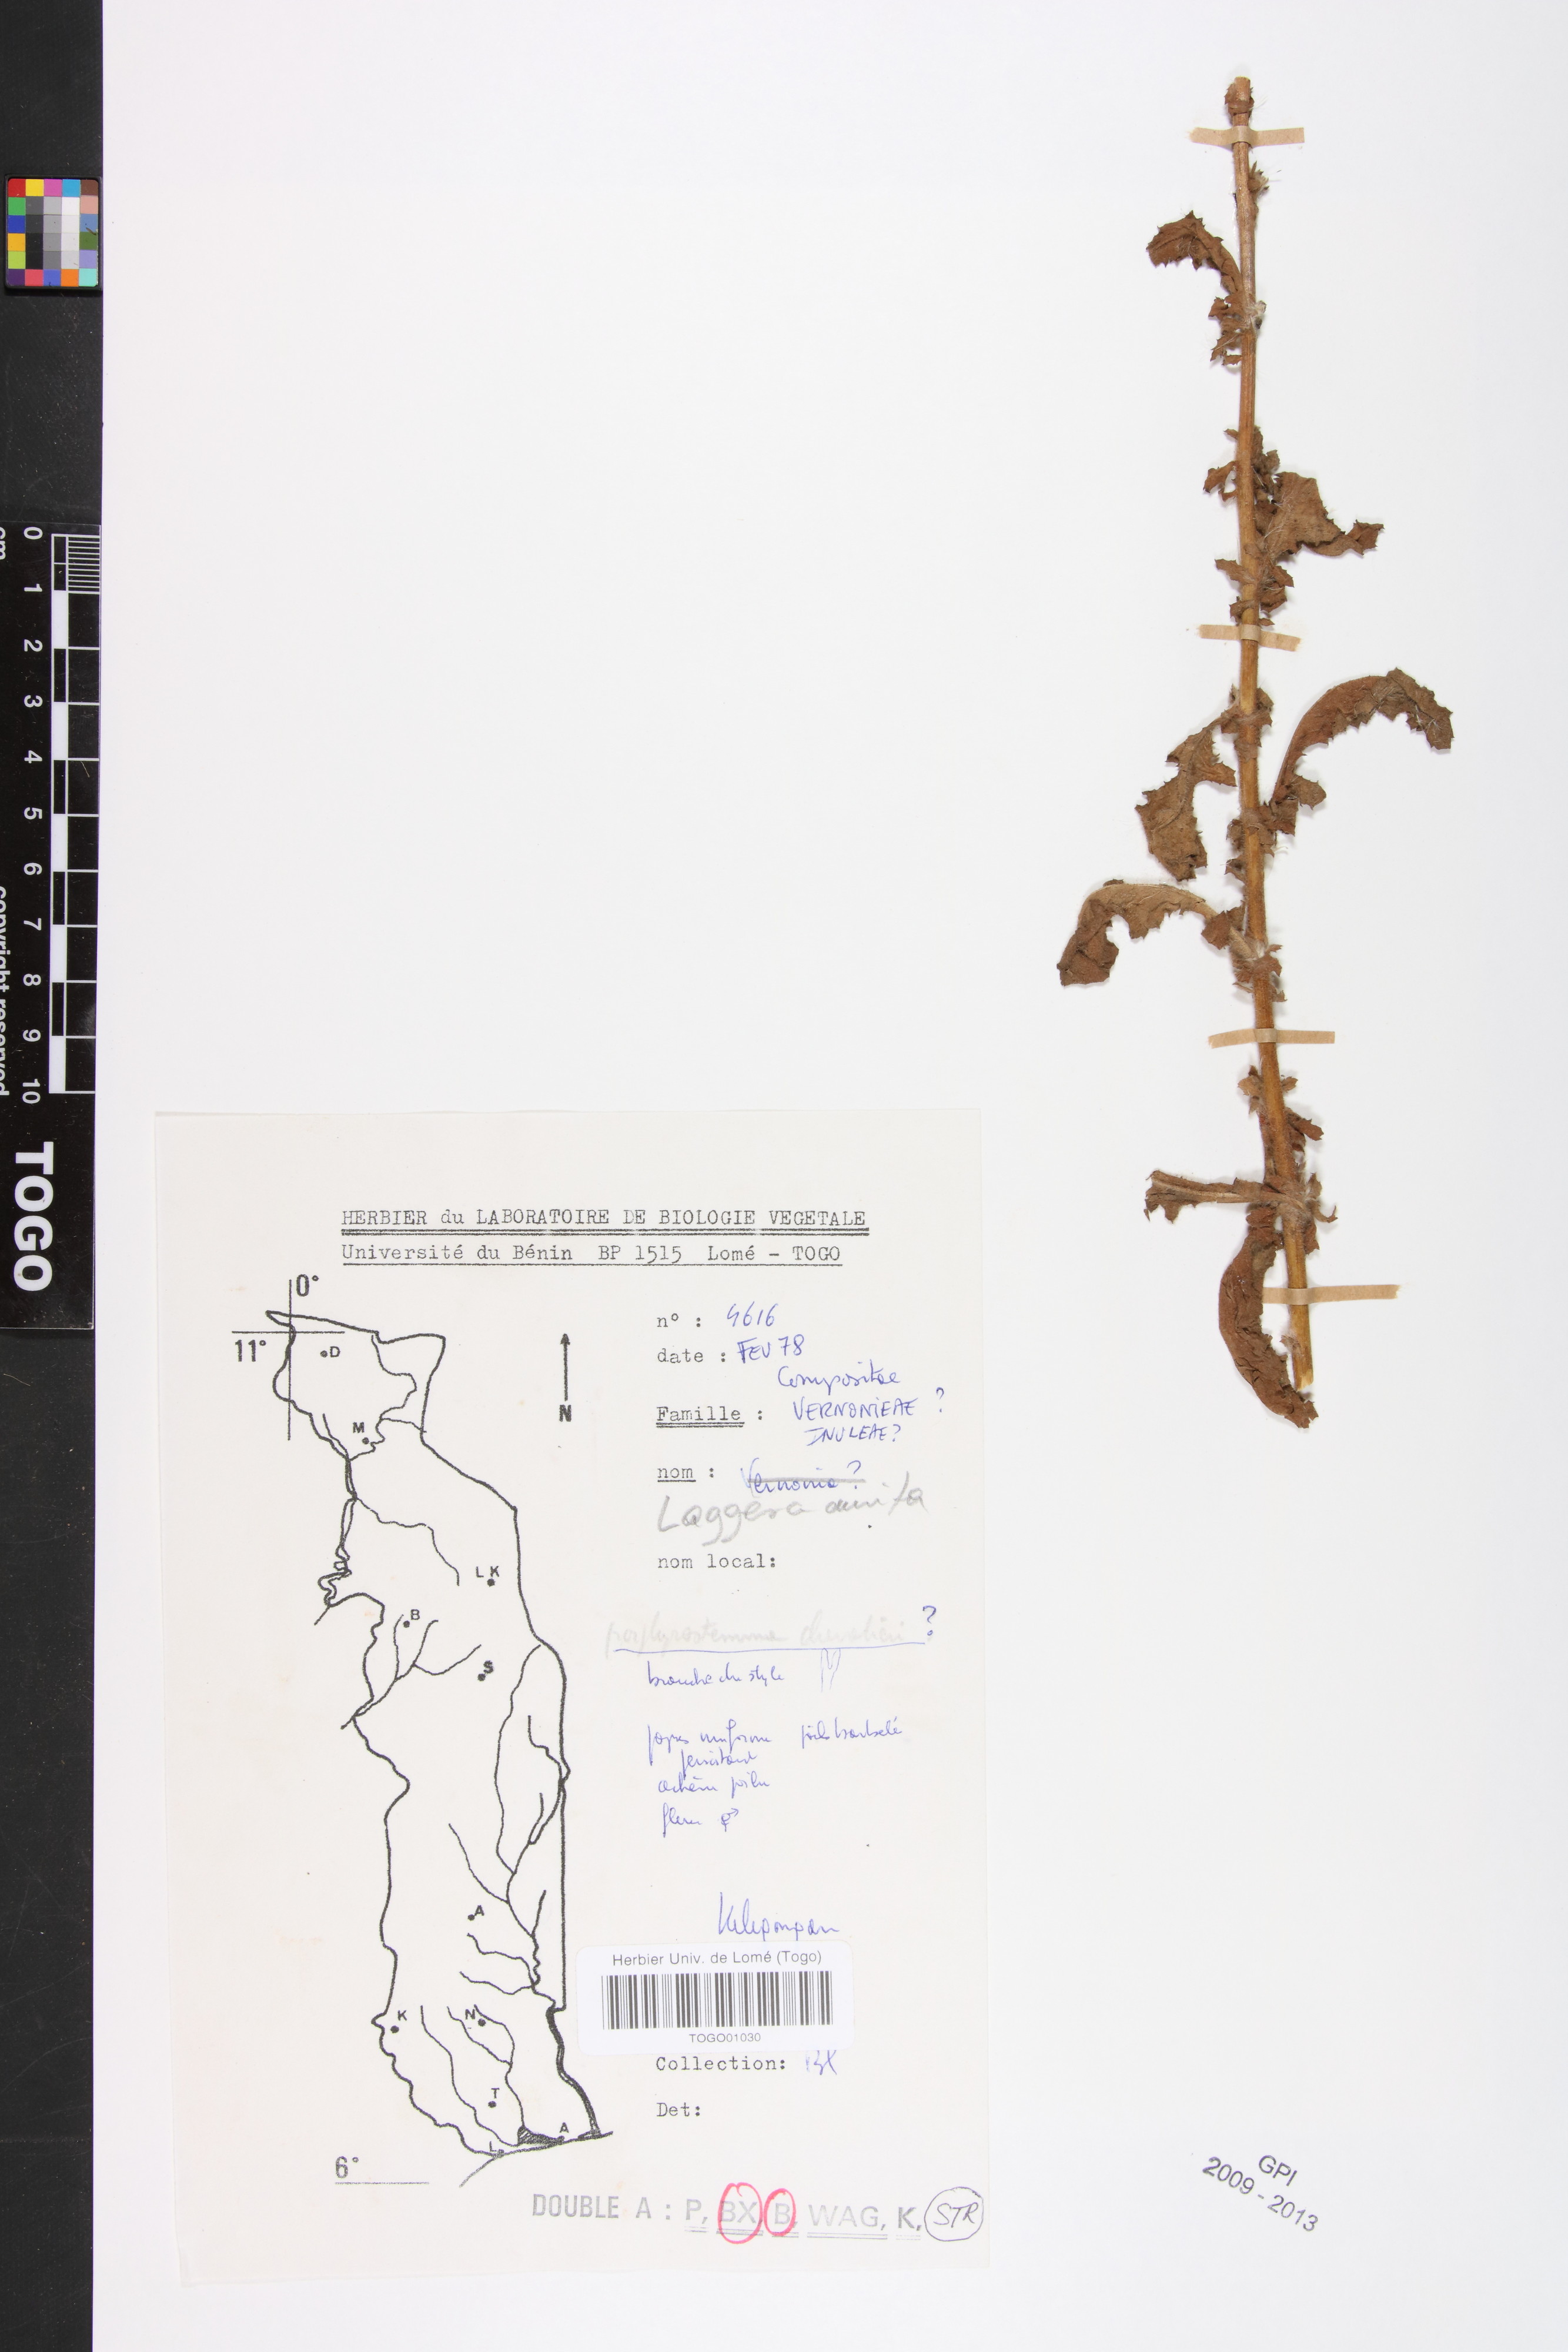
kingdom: Plantae
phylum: Tracheophyta
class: Magnoliopsida
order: Asterales
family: Asteraceae
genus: Pseudoconyza
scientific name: Pseudoconyza viscosa
